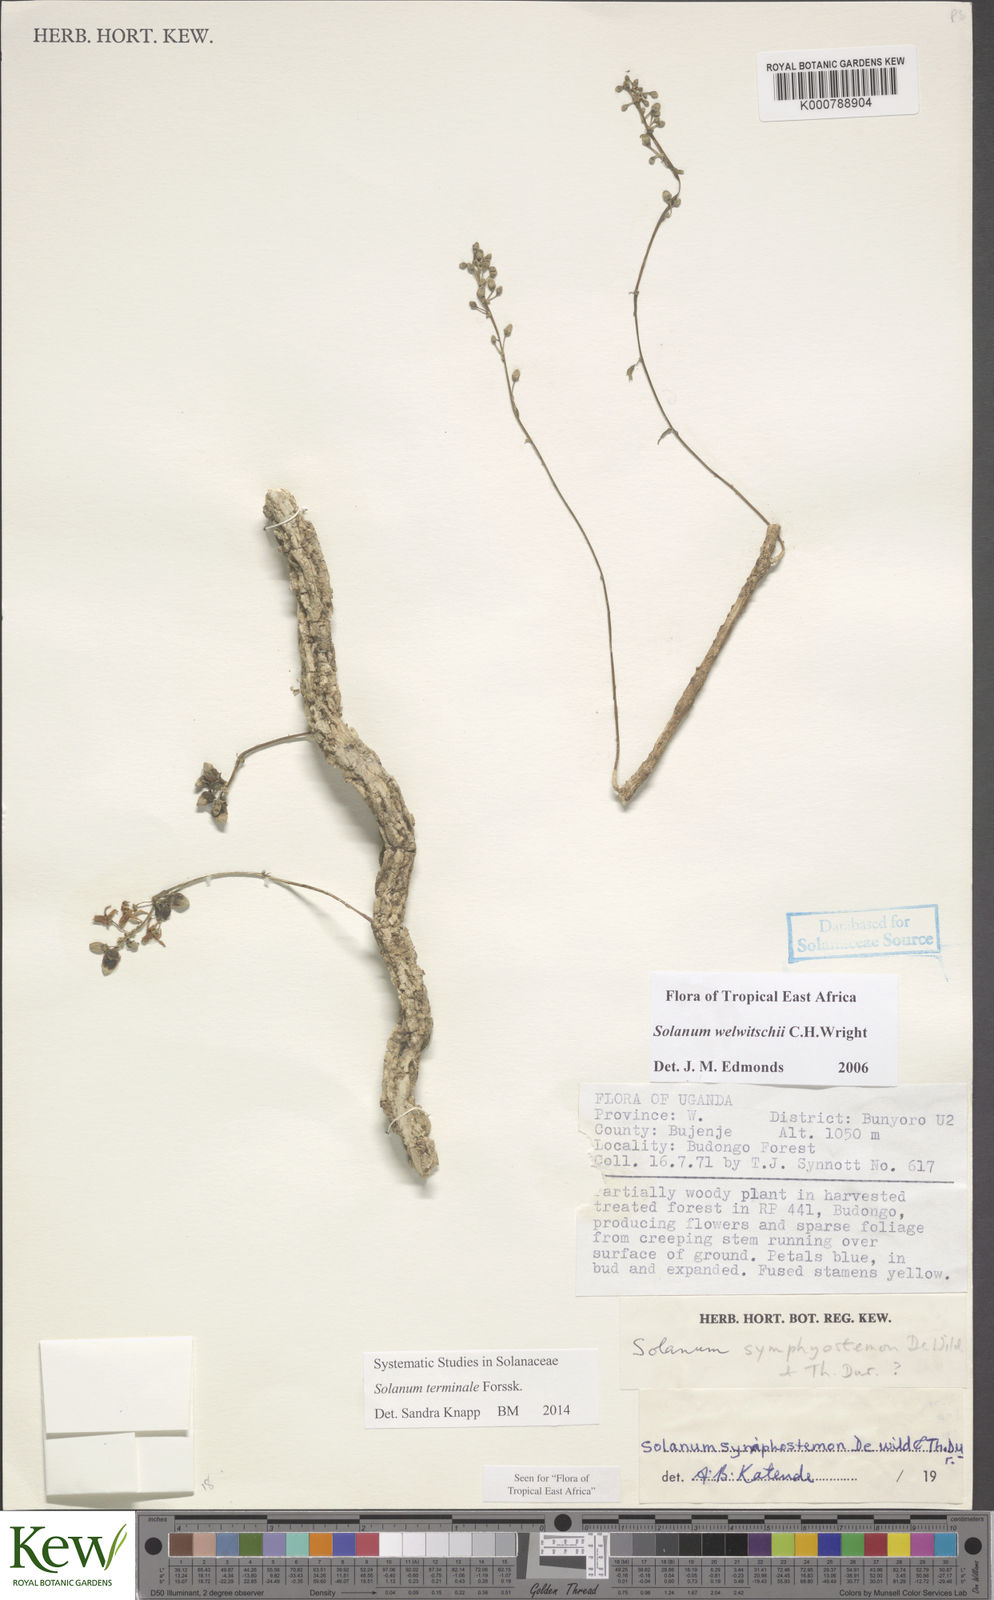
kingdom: Plantae
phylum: Tracheophyta
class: Magnoliopsida
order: Solanales
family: Solanaceae
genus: Solanum
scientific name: Solanum terminale
